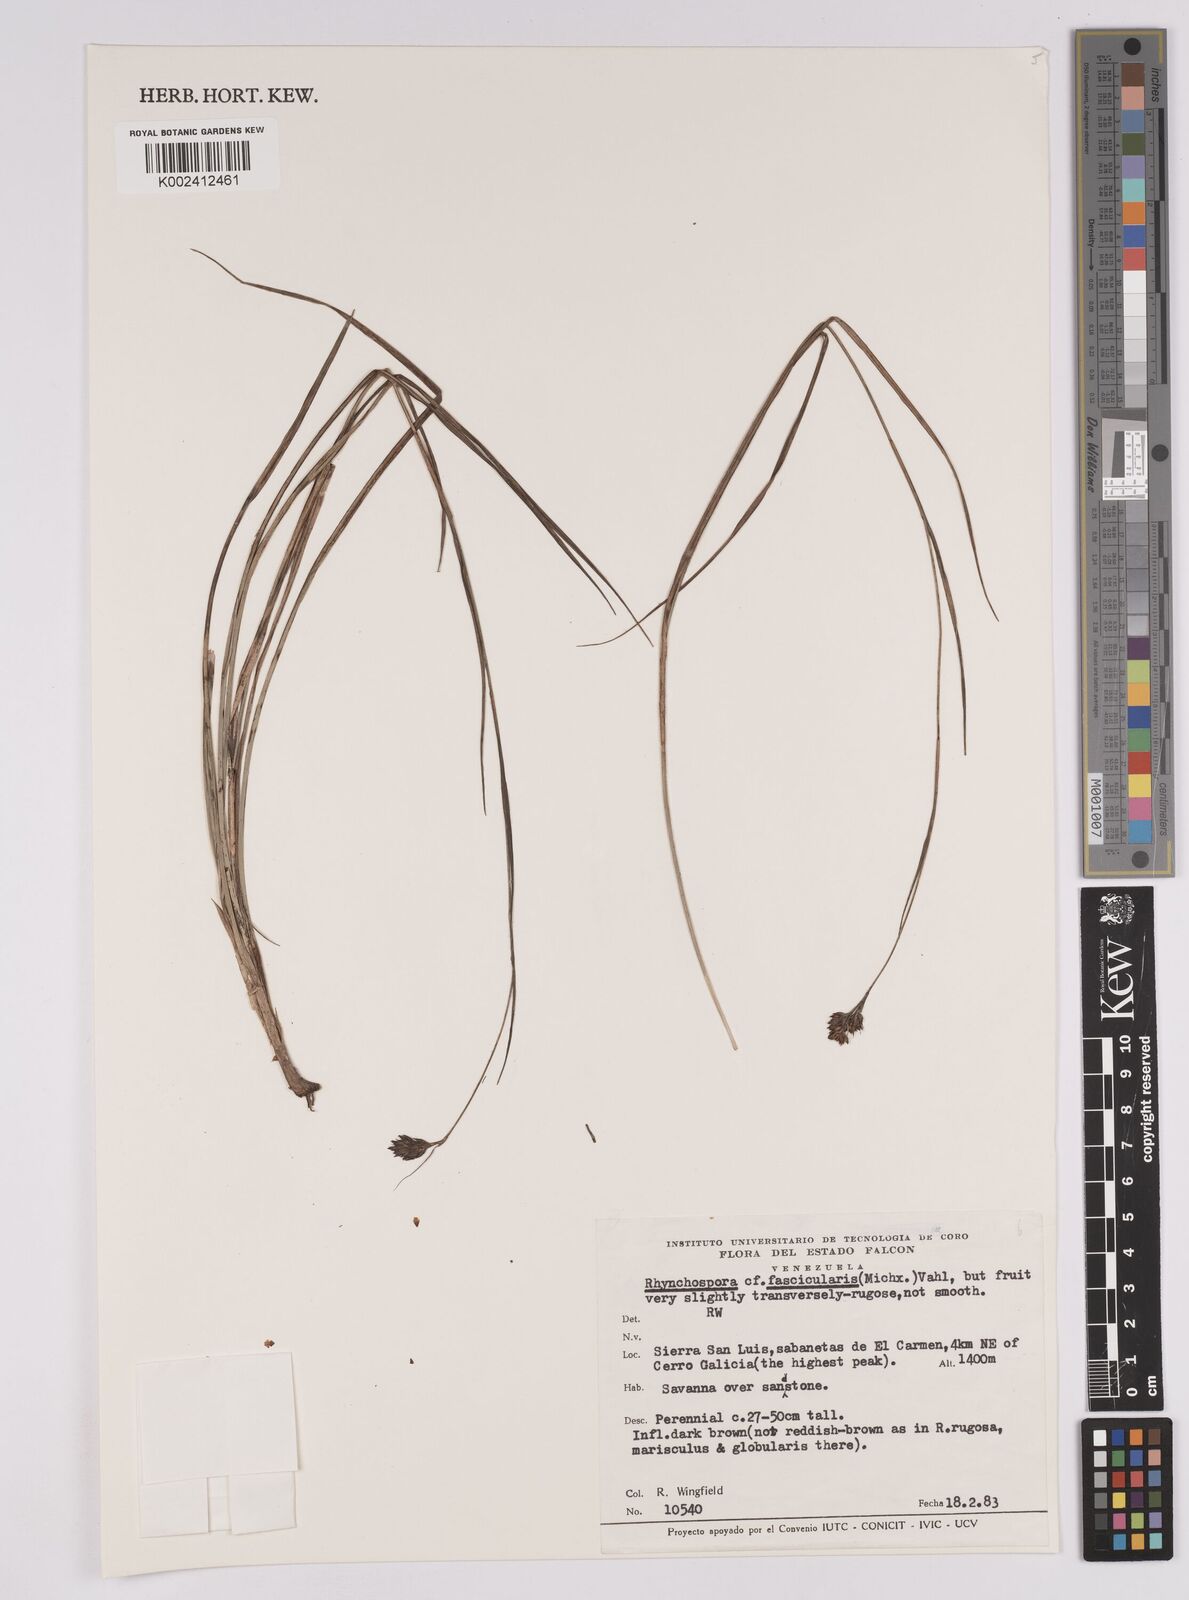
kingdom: Plantae
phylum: Tracheophyta
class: Liliopsida
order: Poales
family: Cyperaceae
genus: Rhynchospora
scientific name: Rhynchospora fascicularis
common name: Fascicled beak sedge
